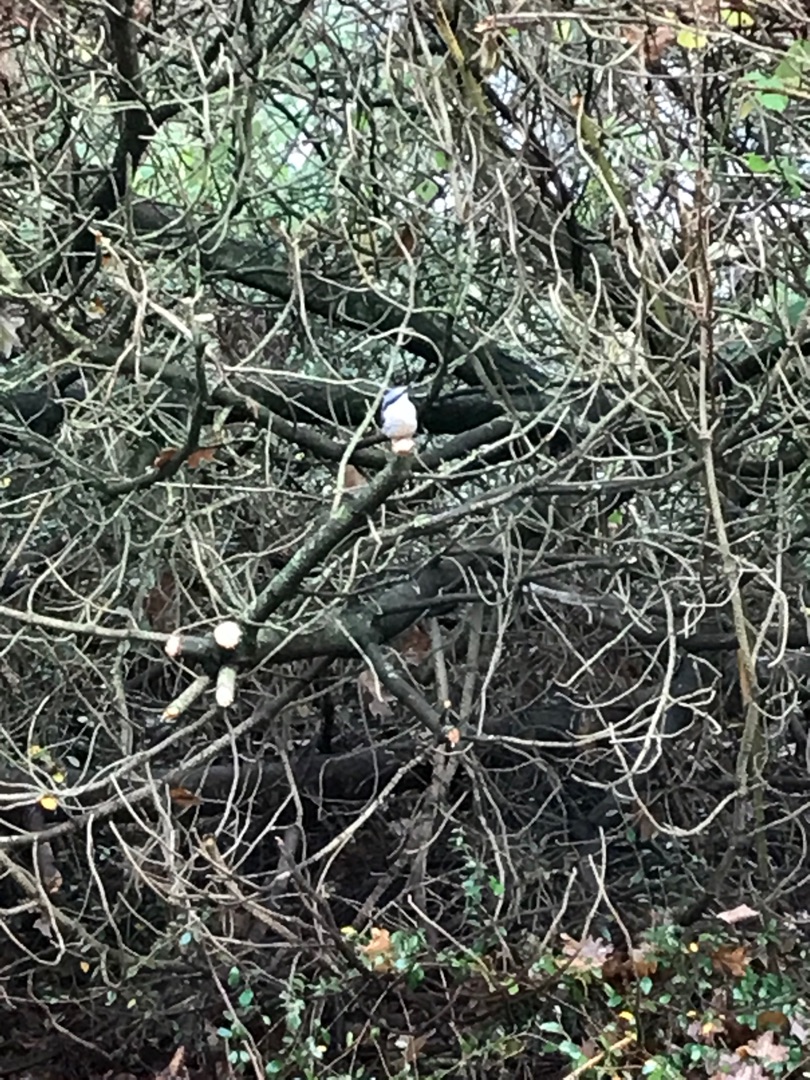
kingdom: Animalia
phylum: Chordata
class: Aves
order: Passeriformes
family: Sittidae
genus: Sitta
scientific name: Sitta europaea
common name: Spætmejse
